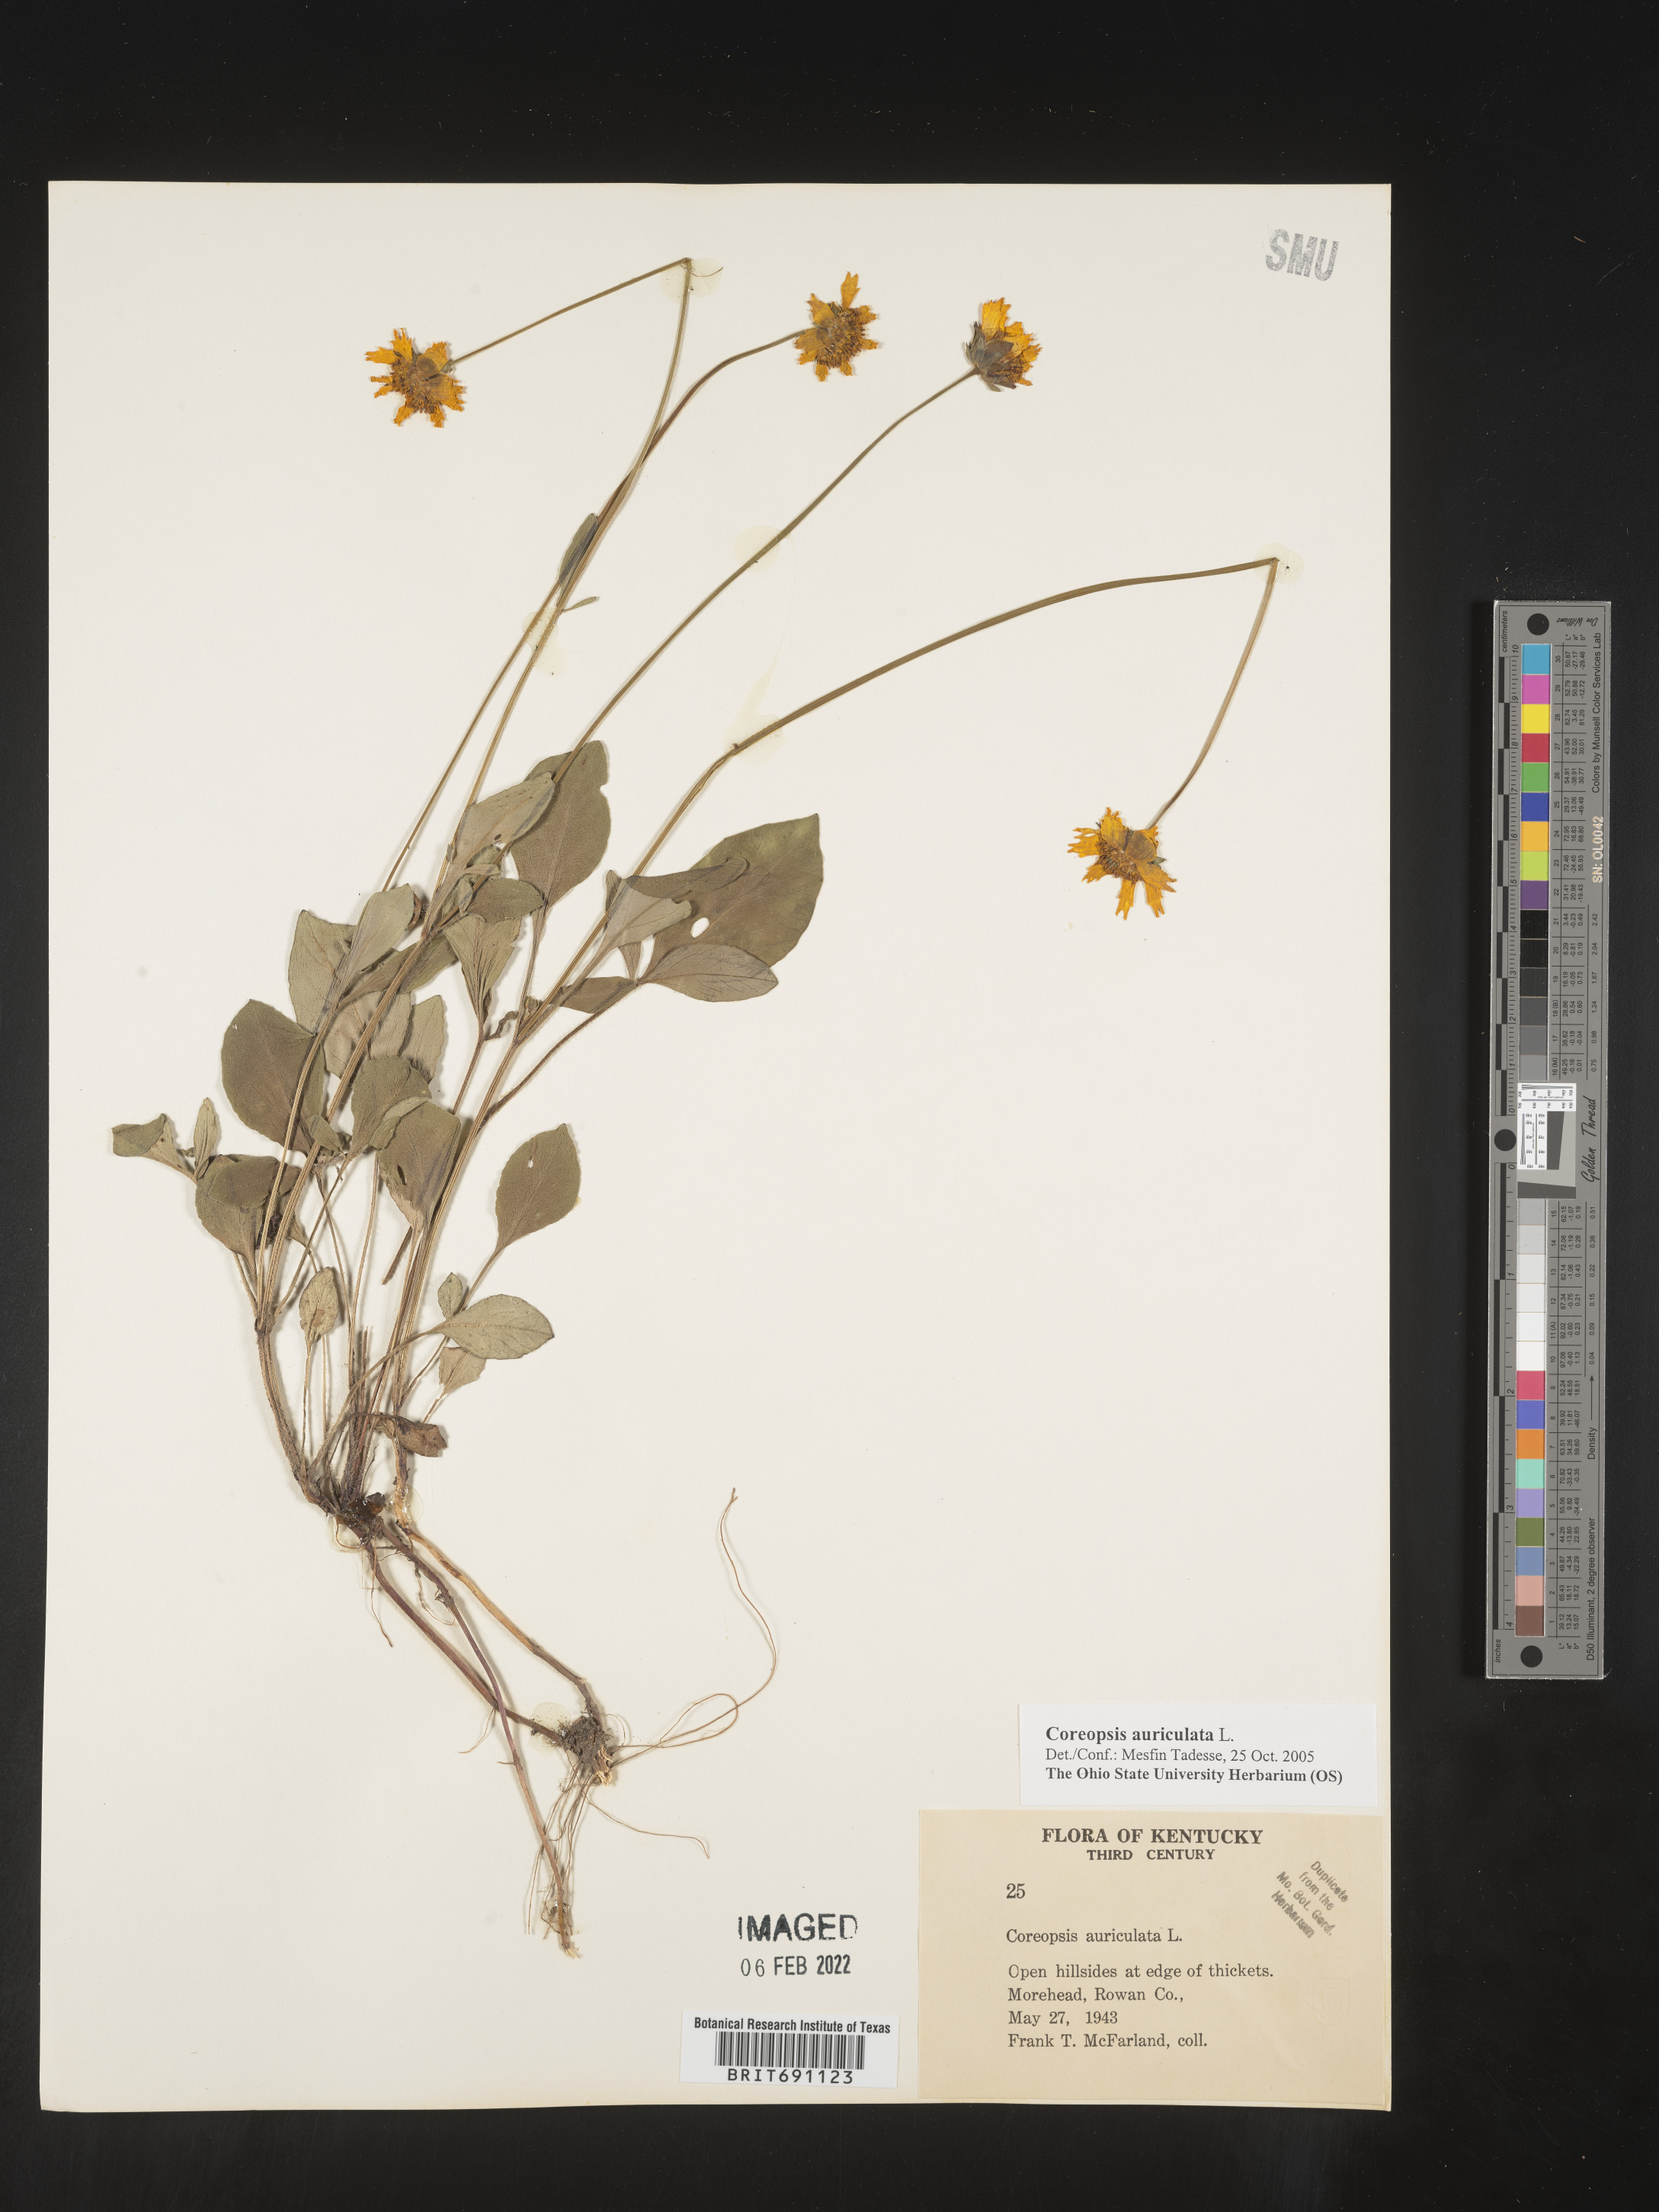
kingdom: Plantae
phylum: Tracheophyta
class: Magnoliopsida
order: Asterales
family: Asteraceae
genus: Coreopsis
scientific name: Coreopsis auriculata
